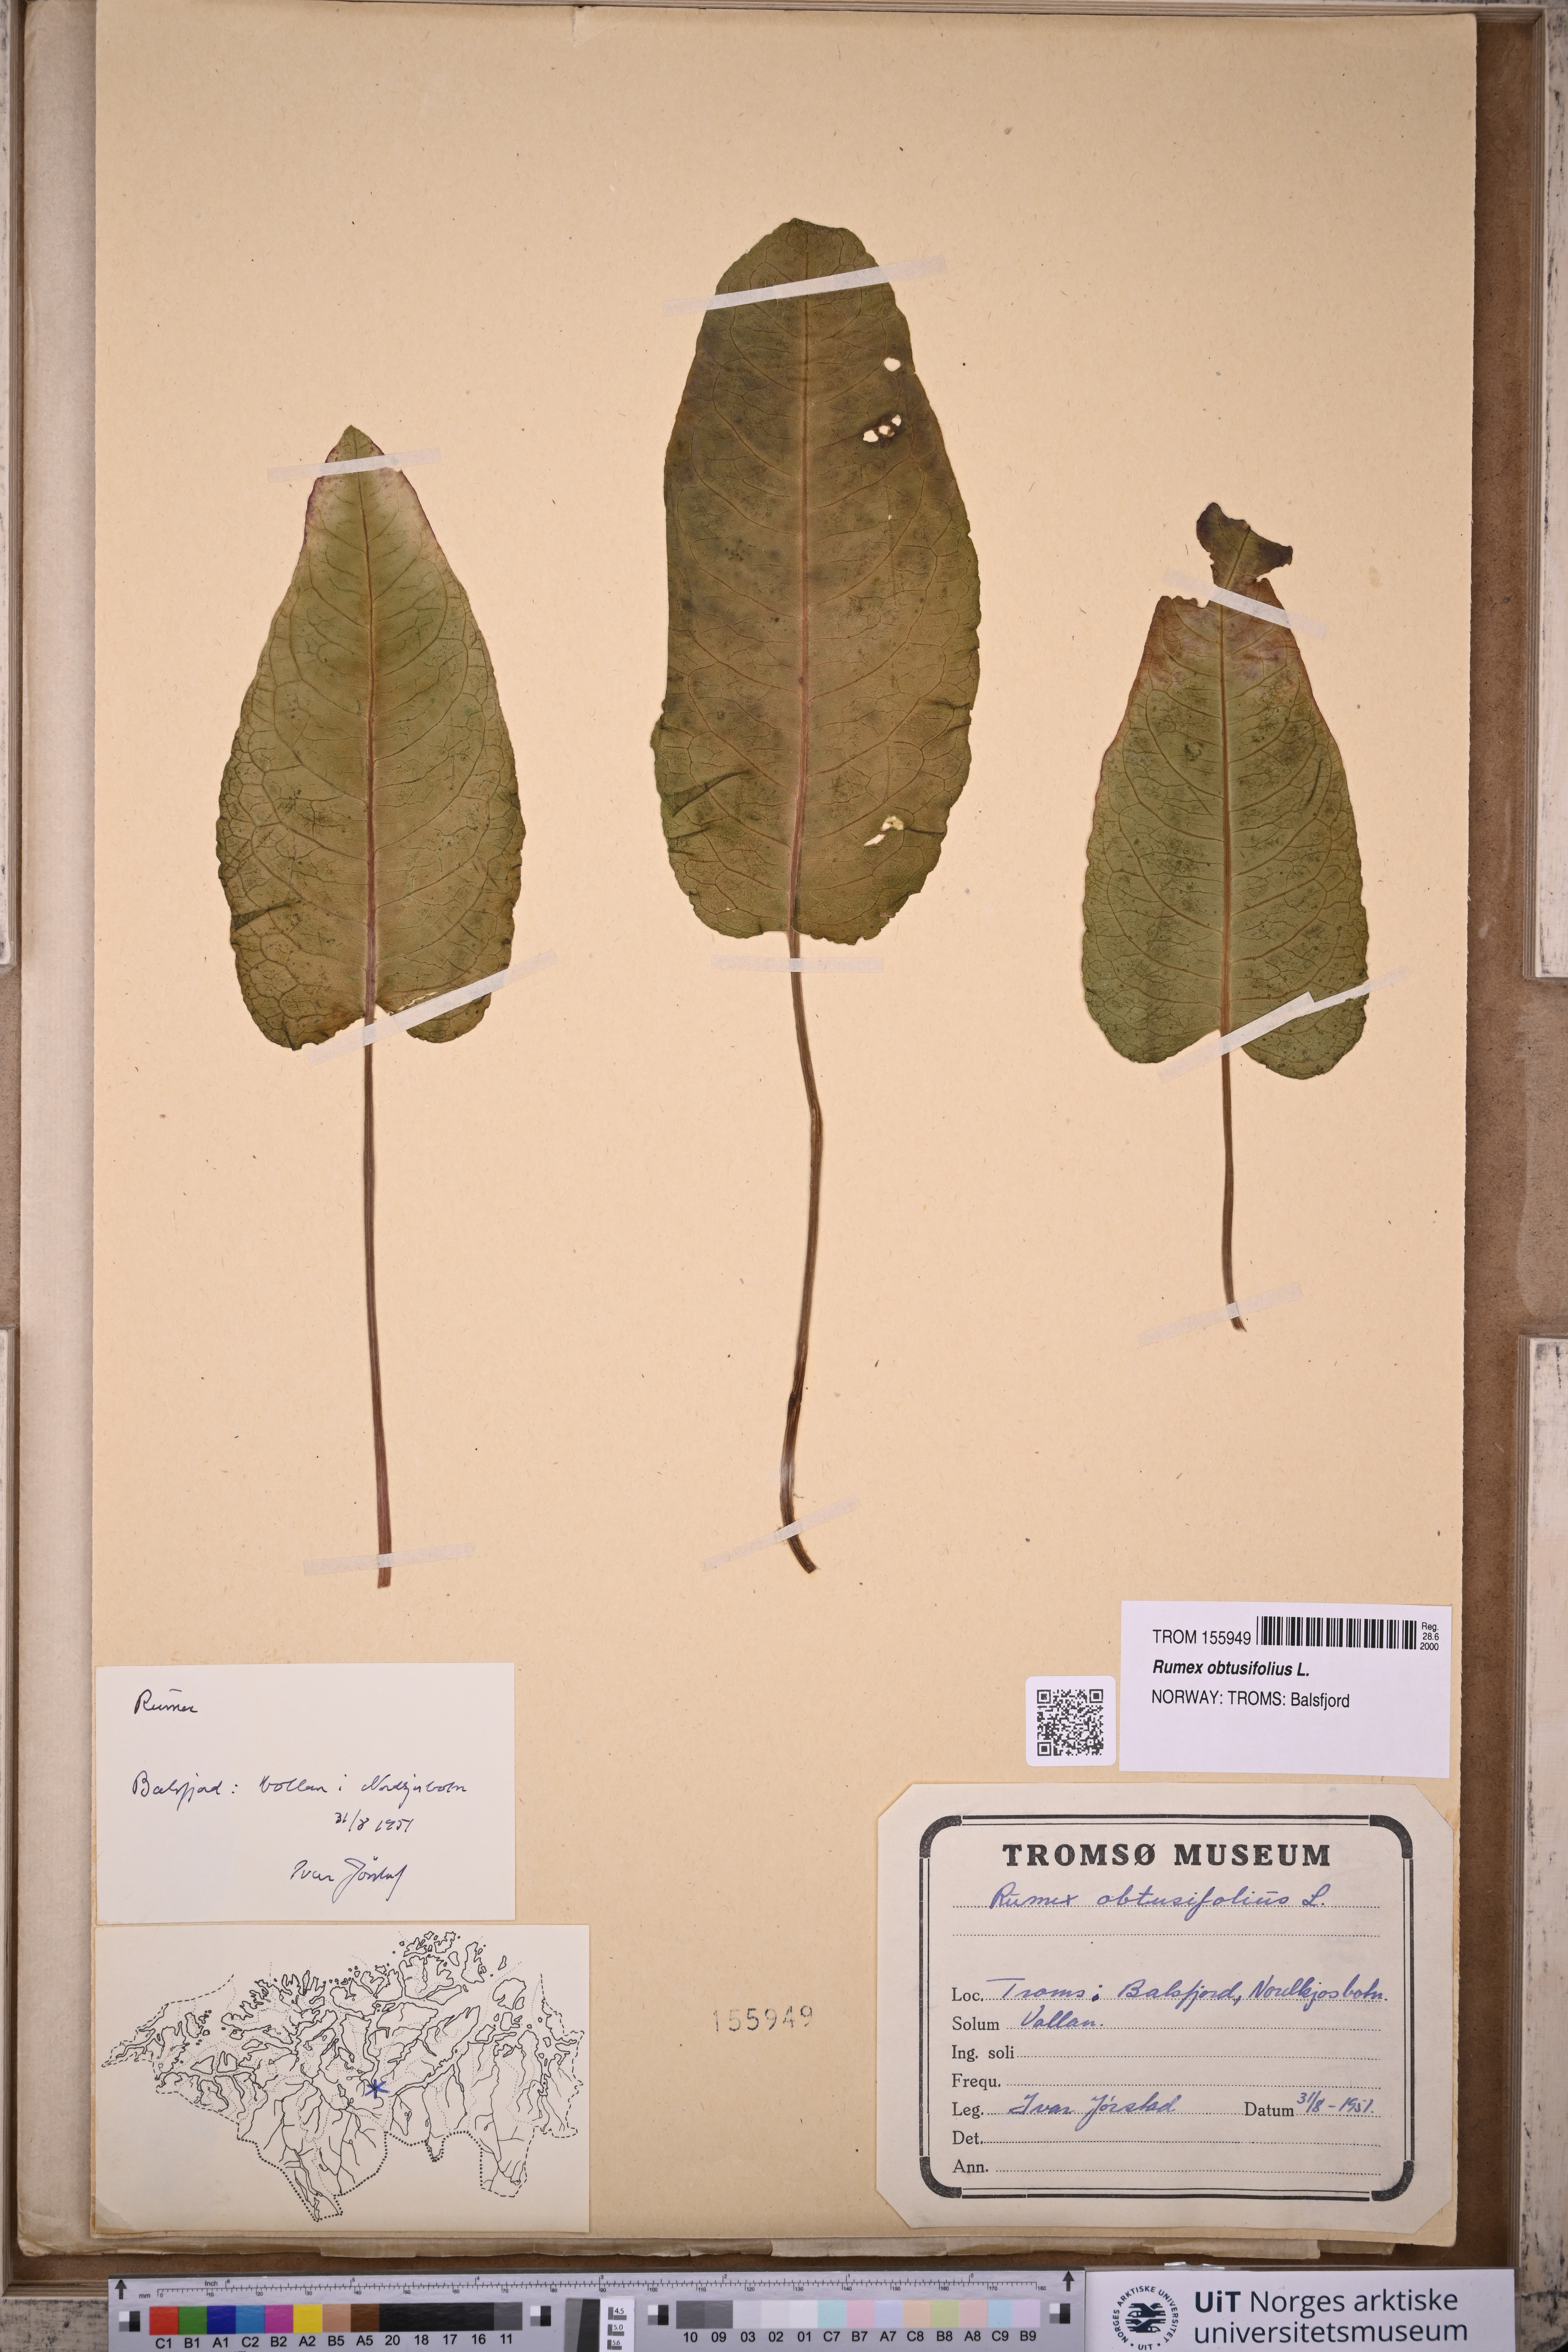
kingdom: Plantae
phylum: Tracheophyta
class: Magnoliopsida
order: Caryophyllales
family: Polygonaceae
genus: Rumex
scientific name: Rumex obtusifolius
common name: Bitter dock
